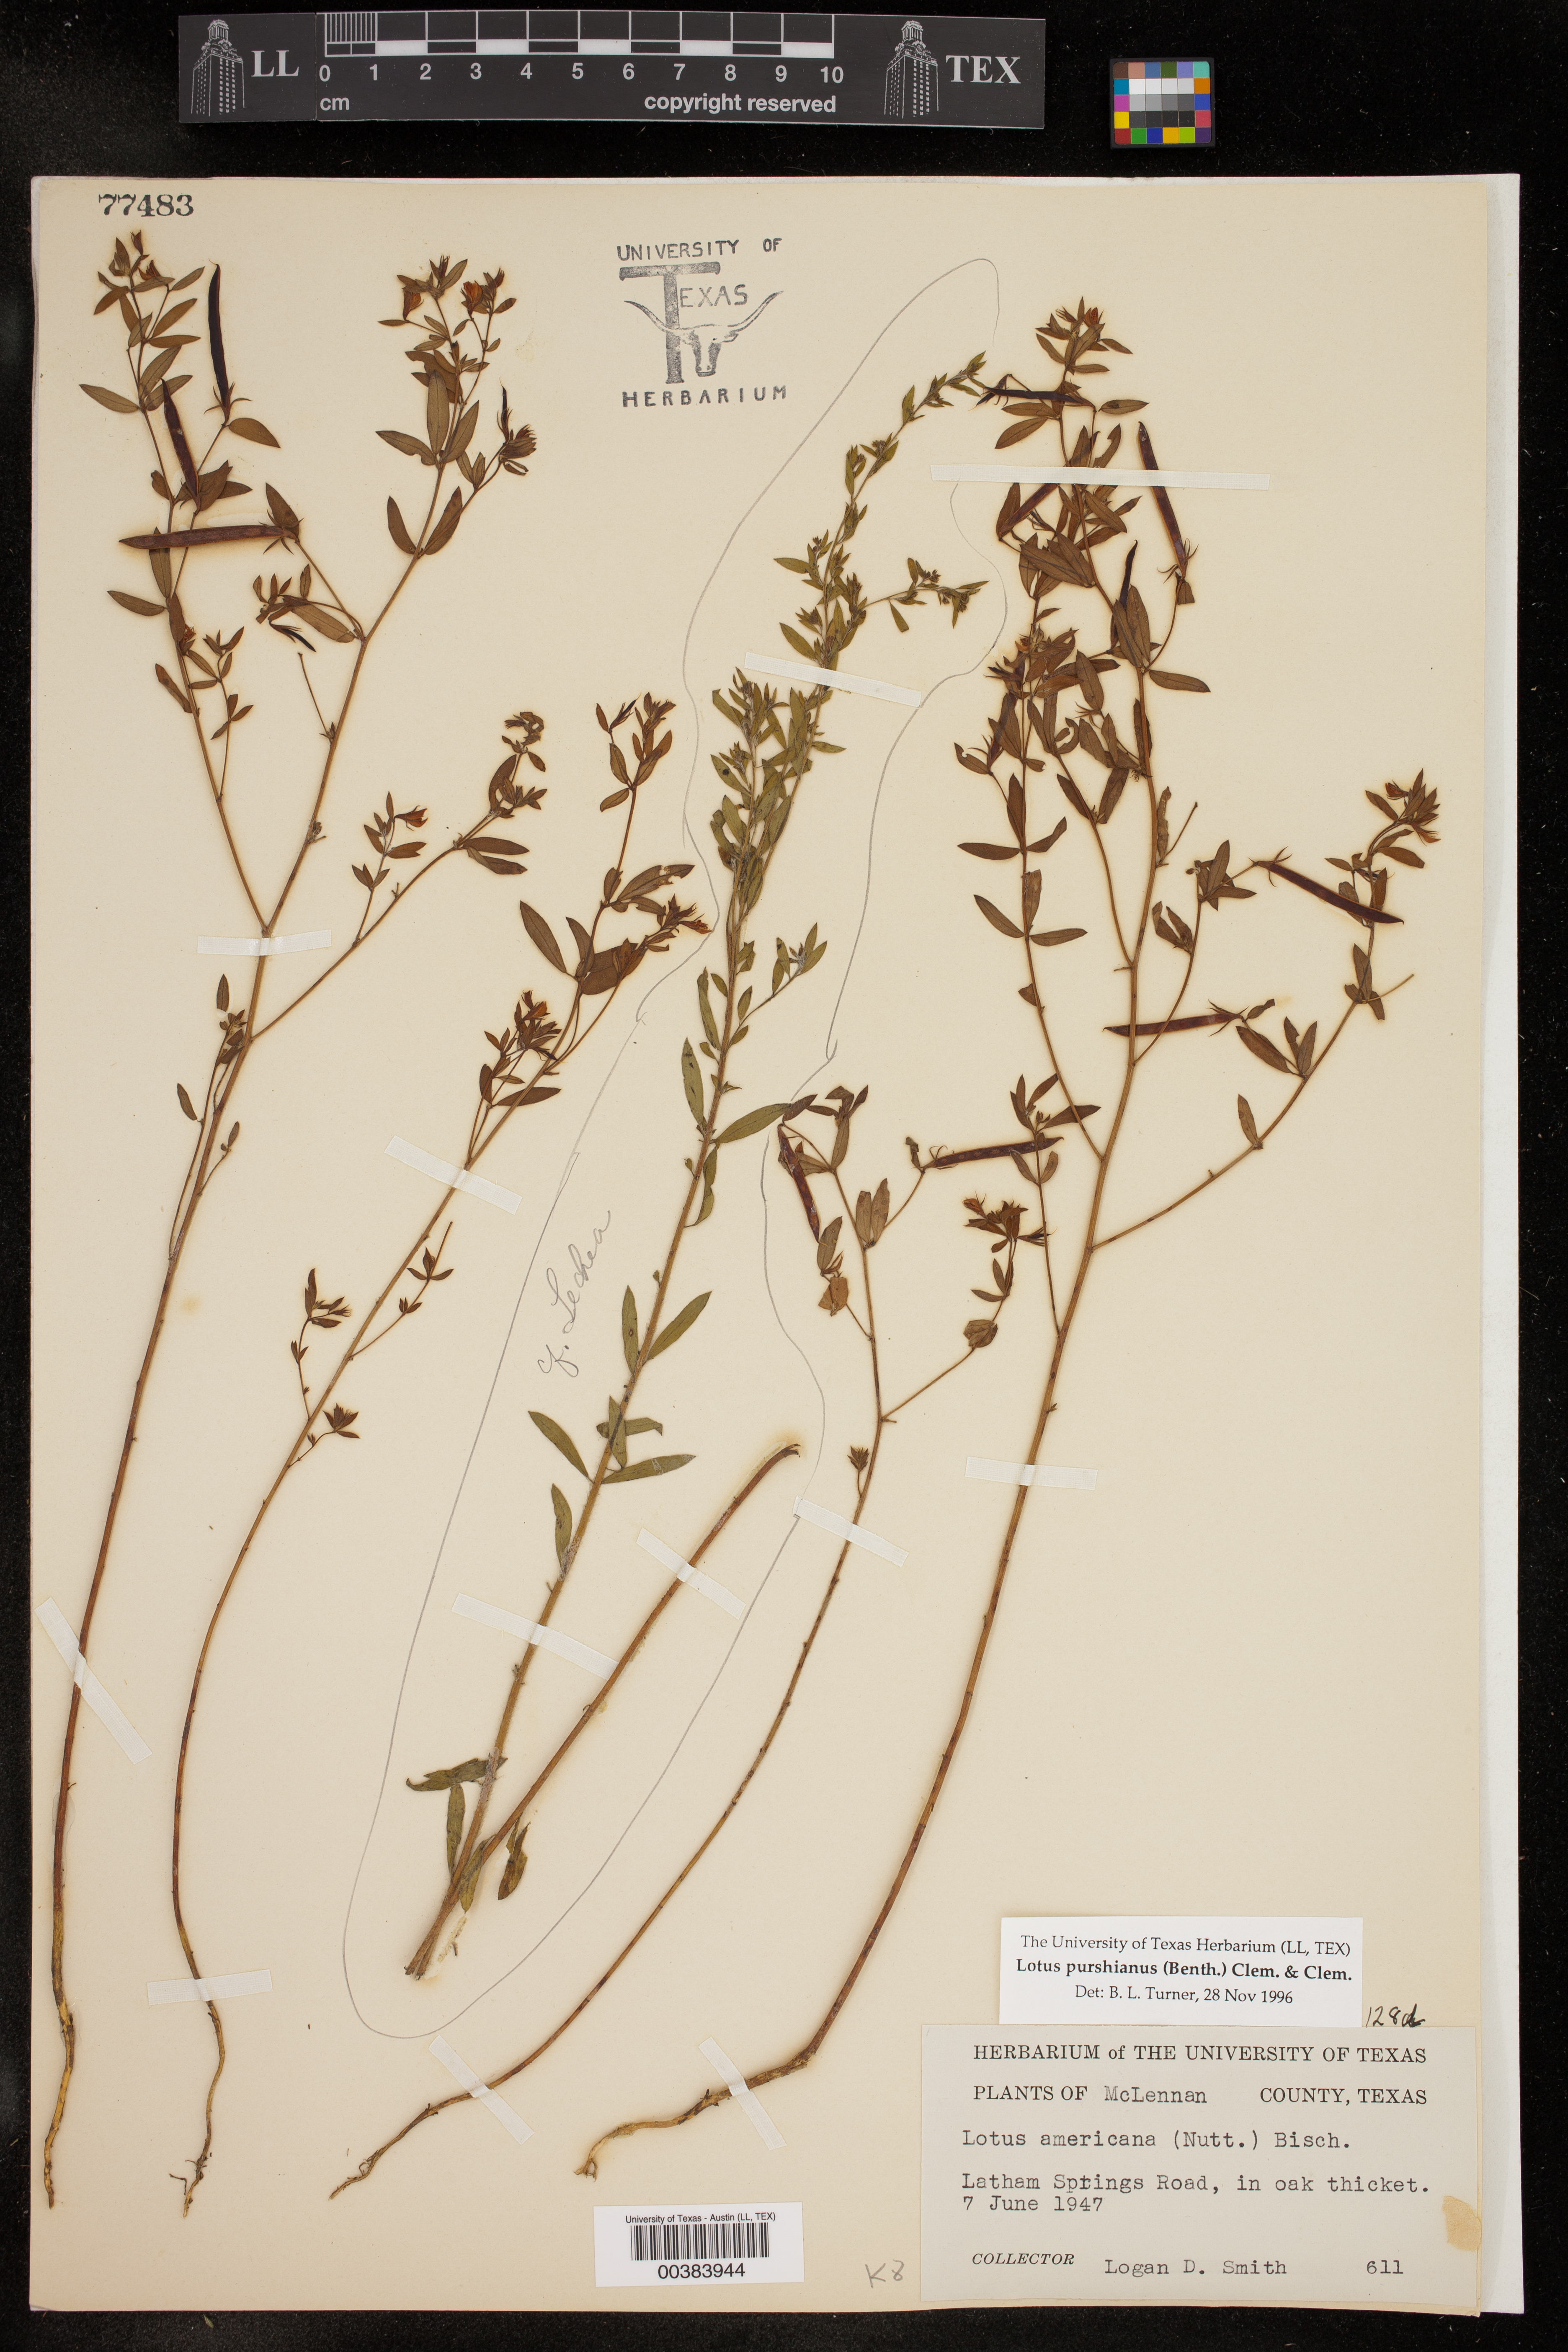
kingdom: Plantae
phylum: Tracheophyta
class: Magnoliopsida
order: Fabales
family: Fabaceae
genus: Acmispon
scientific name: Acmispon americanus
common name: American bird's-foot trefoil
